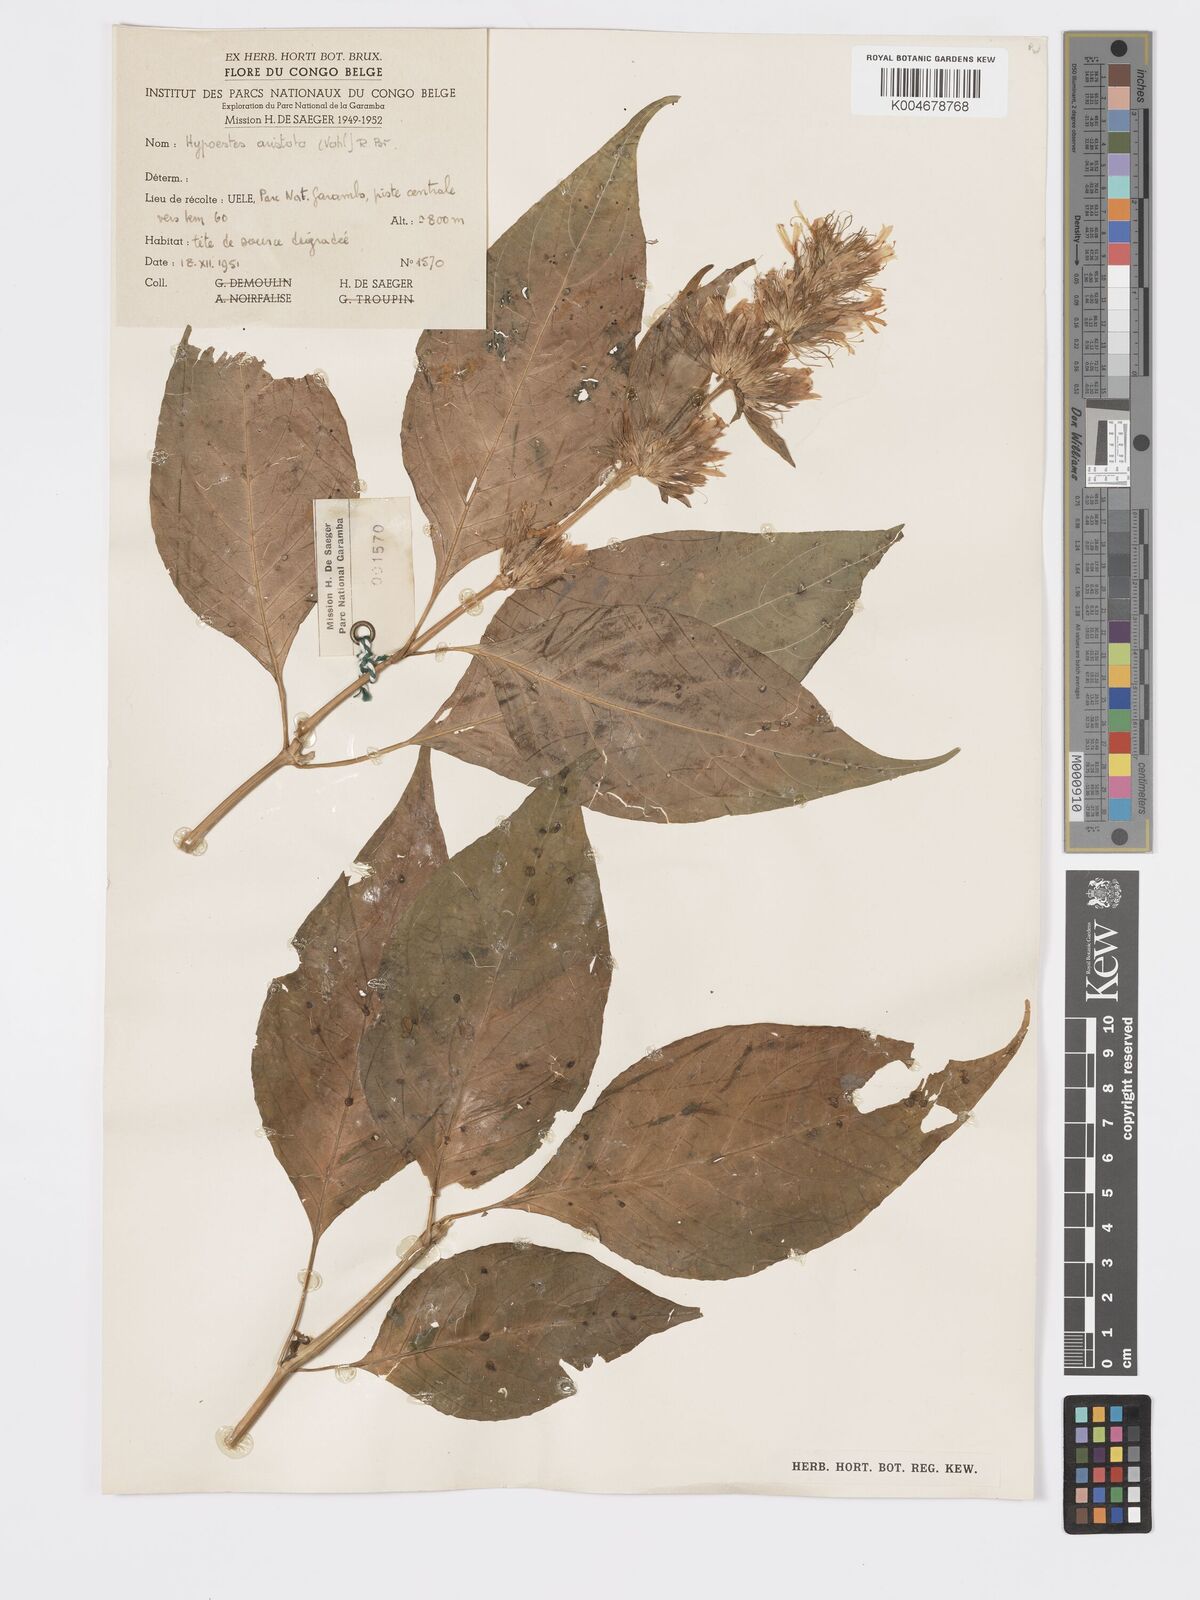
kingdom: Plantae
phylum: Tracheophyta
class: Magnoliopsida
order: Lamiales
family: Acanthaceae
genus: Hypoestes
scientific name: Hypoestes aristata
